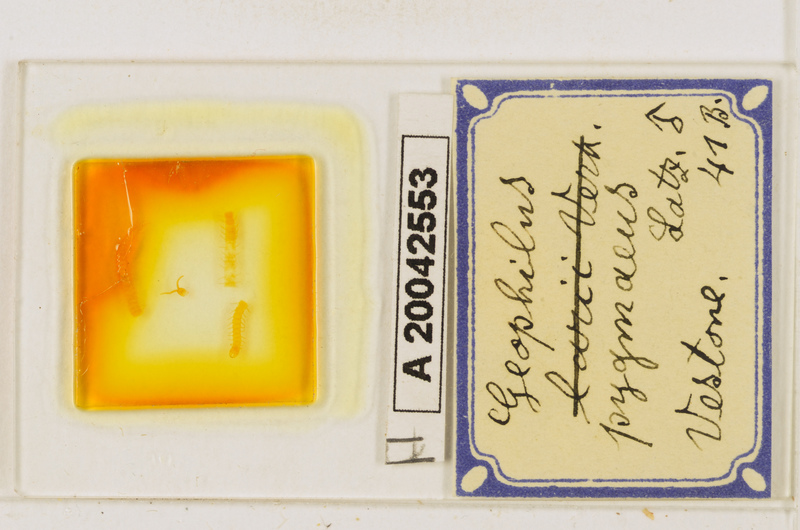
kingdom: Animalia
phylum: Arthropoda
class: Chilopoda
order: Geophilomorpha
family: Geophilidae
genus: Geophilus
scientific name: Geophilus pygmaeus
